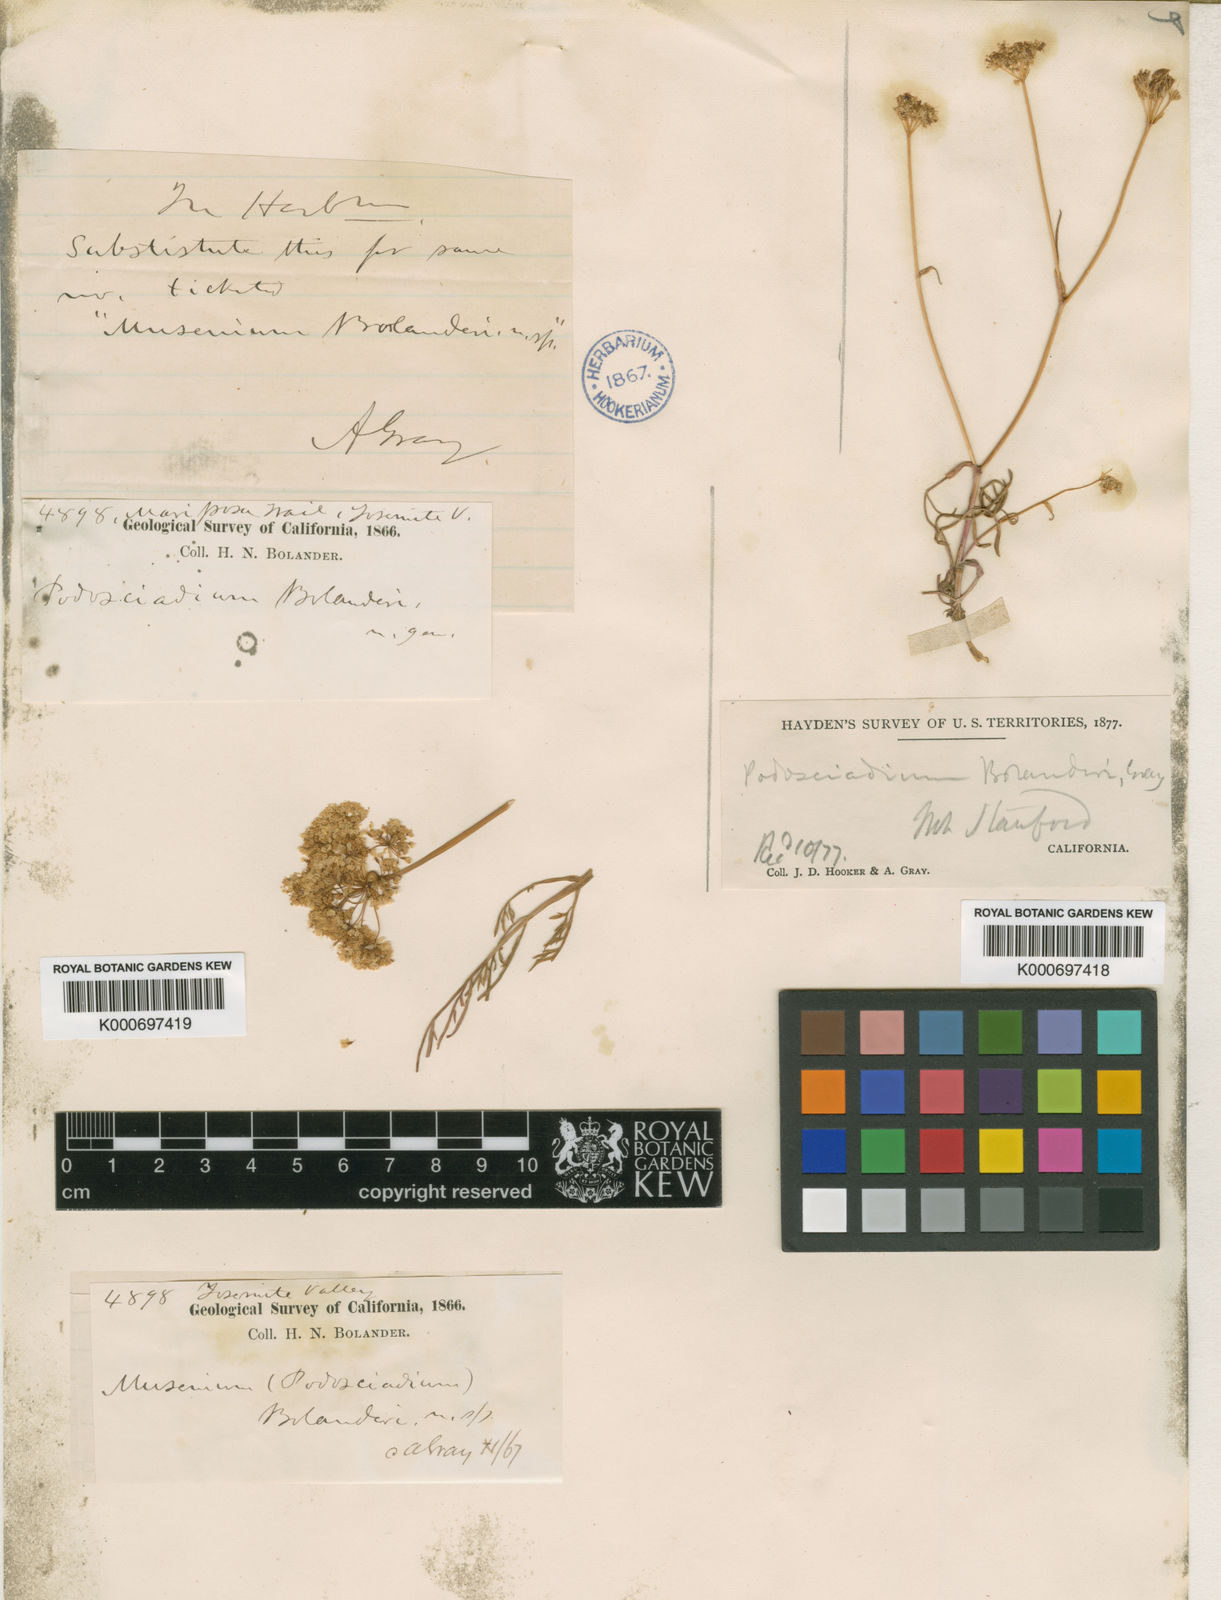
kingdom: Plantae
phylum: Tracheophyta
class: Magnoliopsida
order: Apiales
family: Apiaceae
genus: Perideridia
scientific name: Perideridia bolanderi
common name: Olasi
